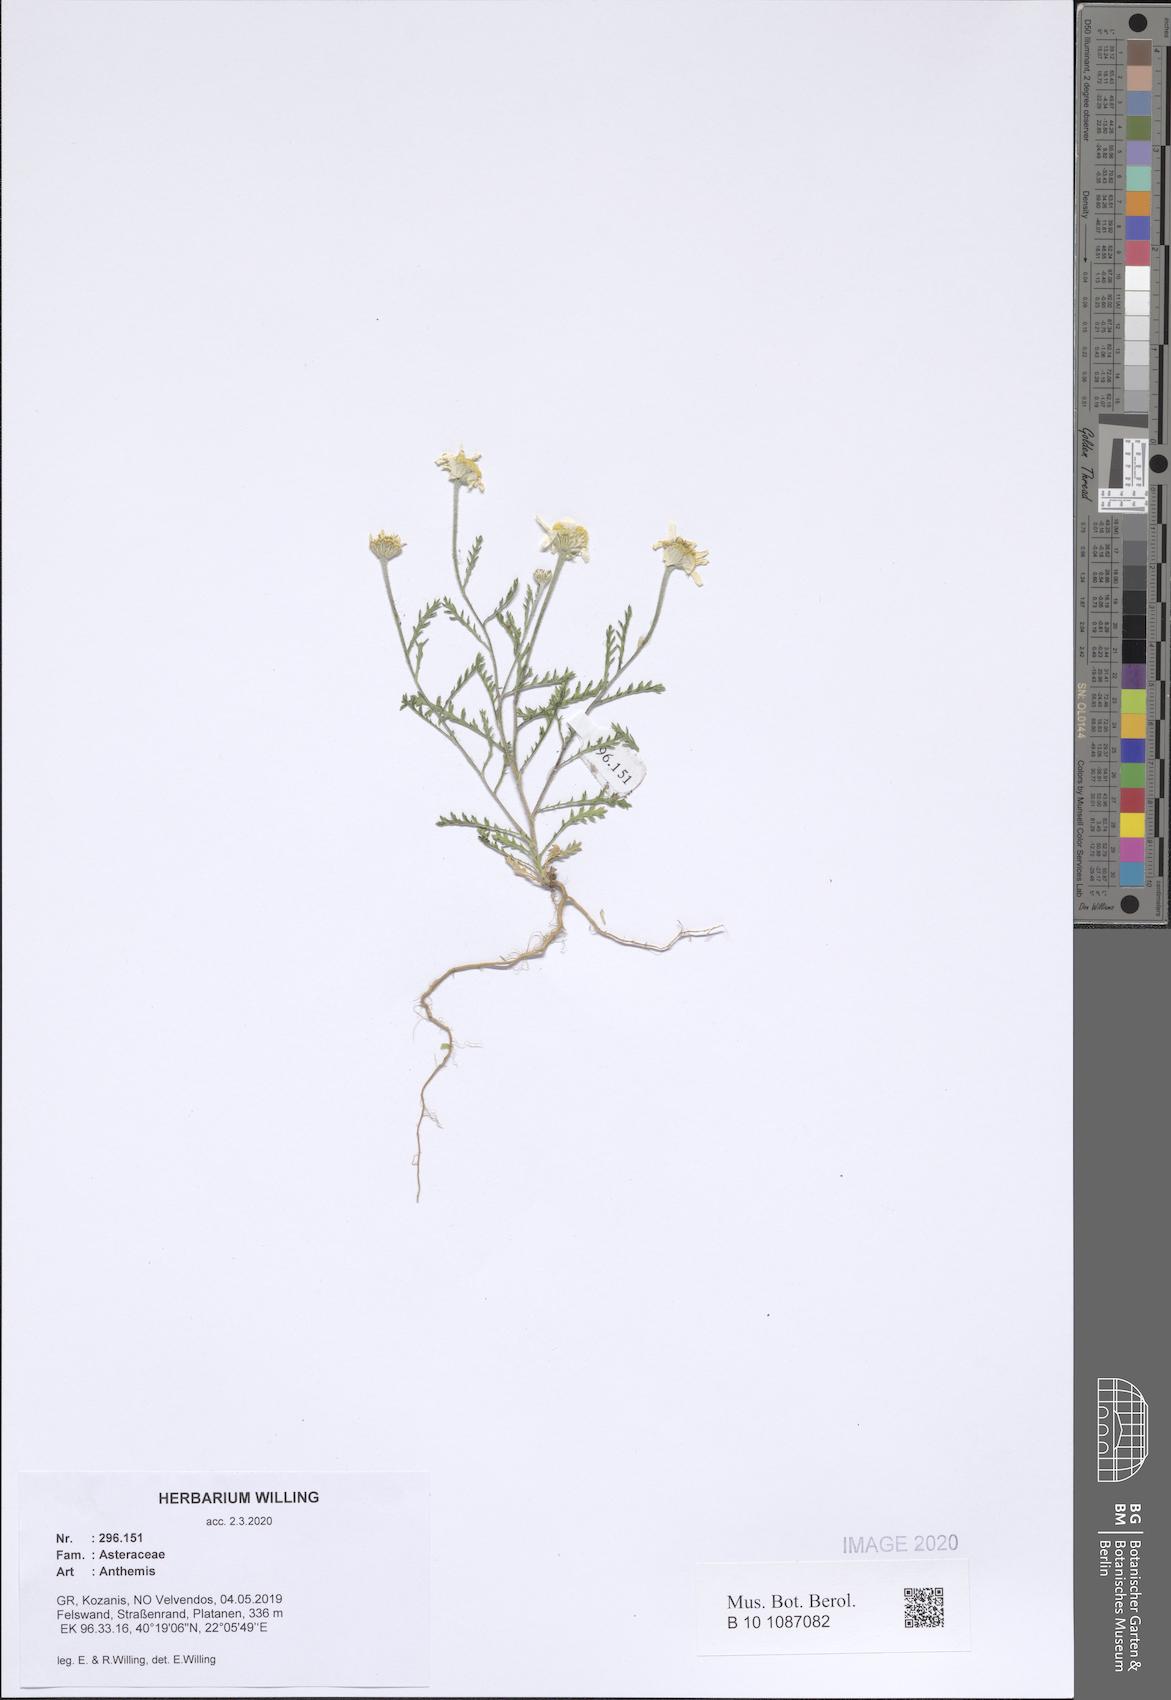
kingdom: Plantae
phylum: Tracheophyta
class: Magnoliopsida
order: Asterales
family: Asteraceae
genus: Anthemis
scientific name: Anthemis
